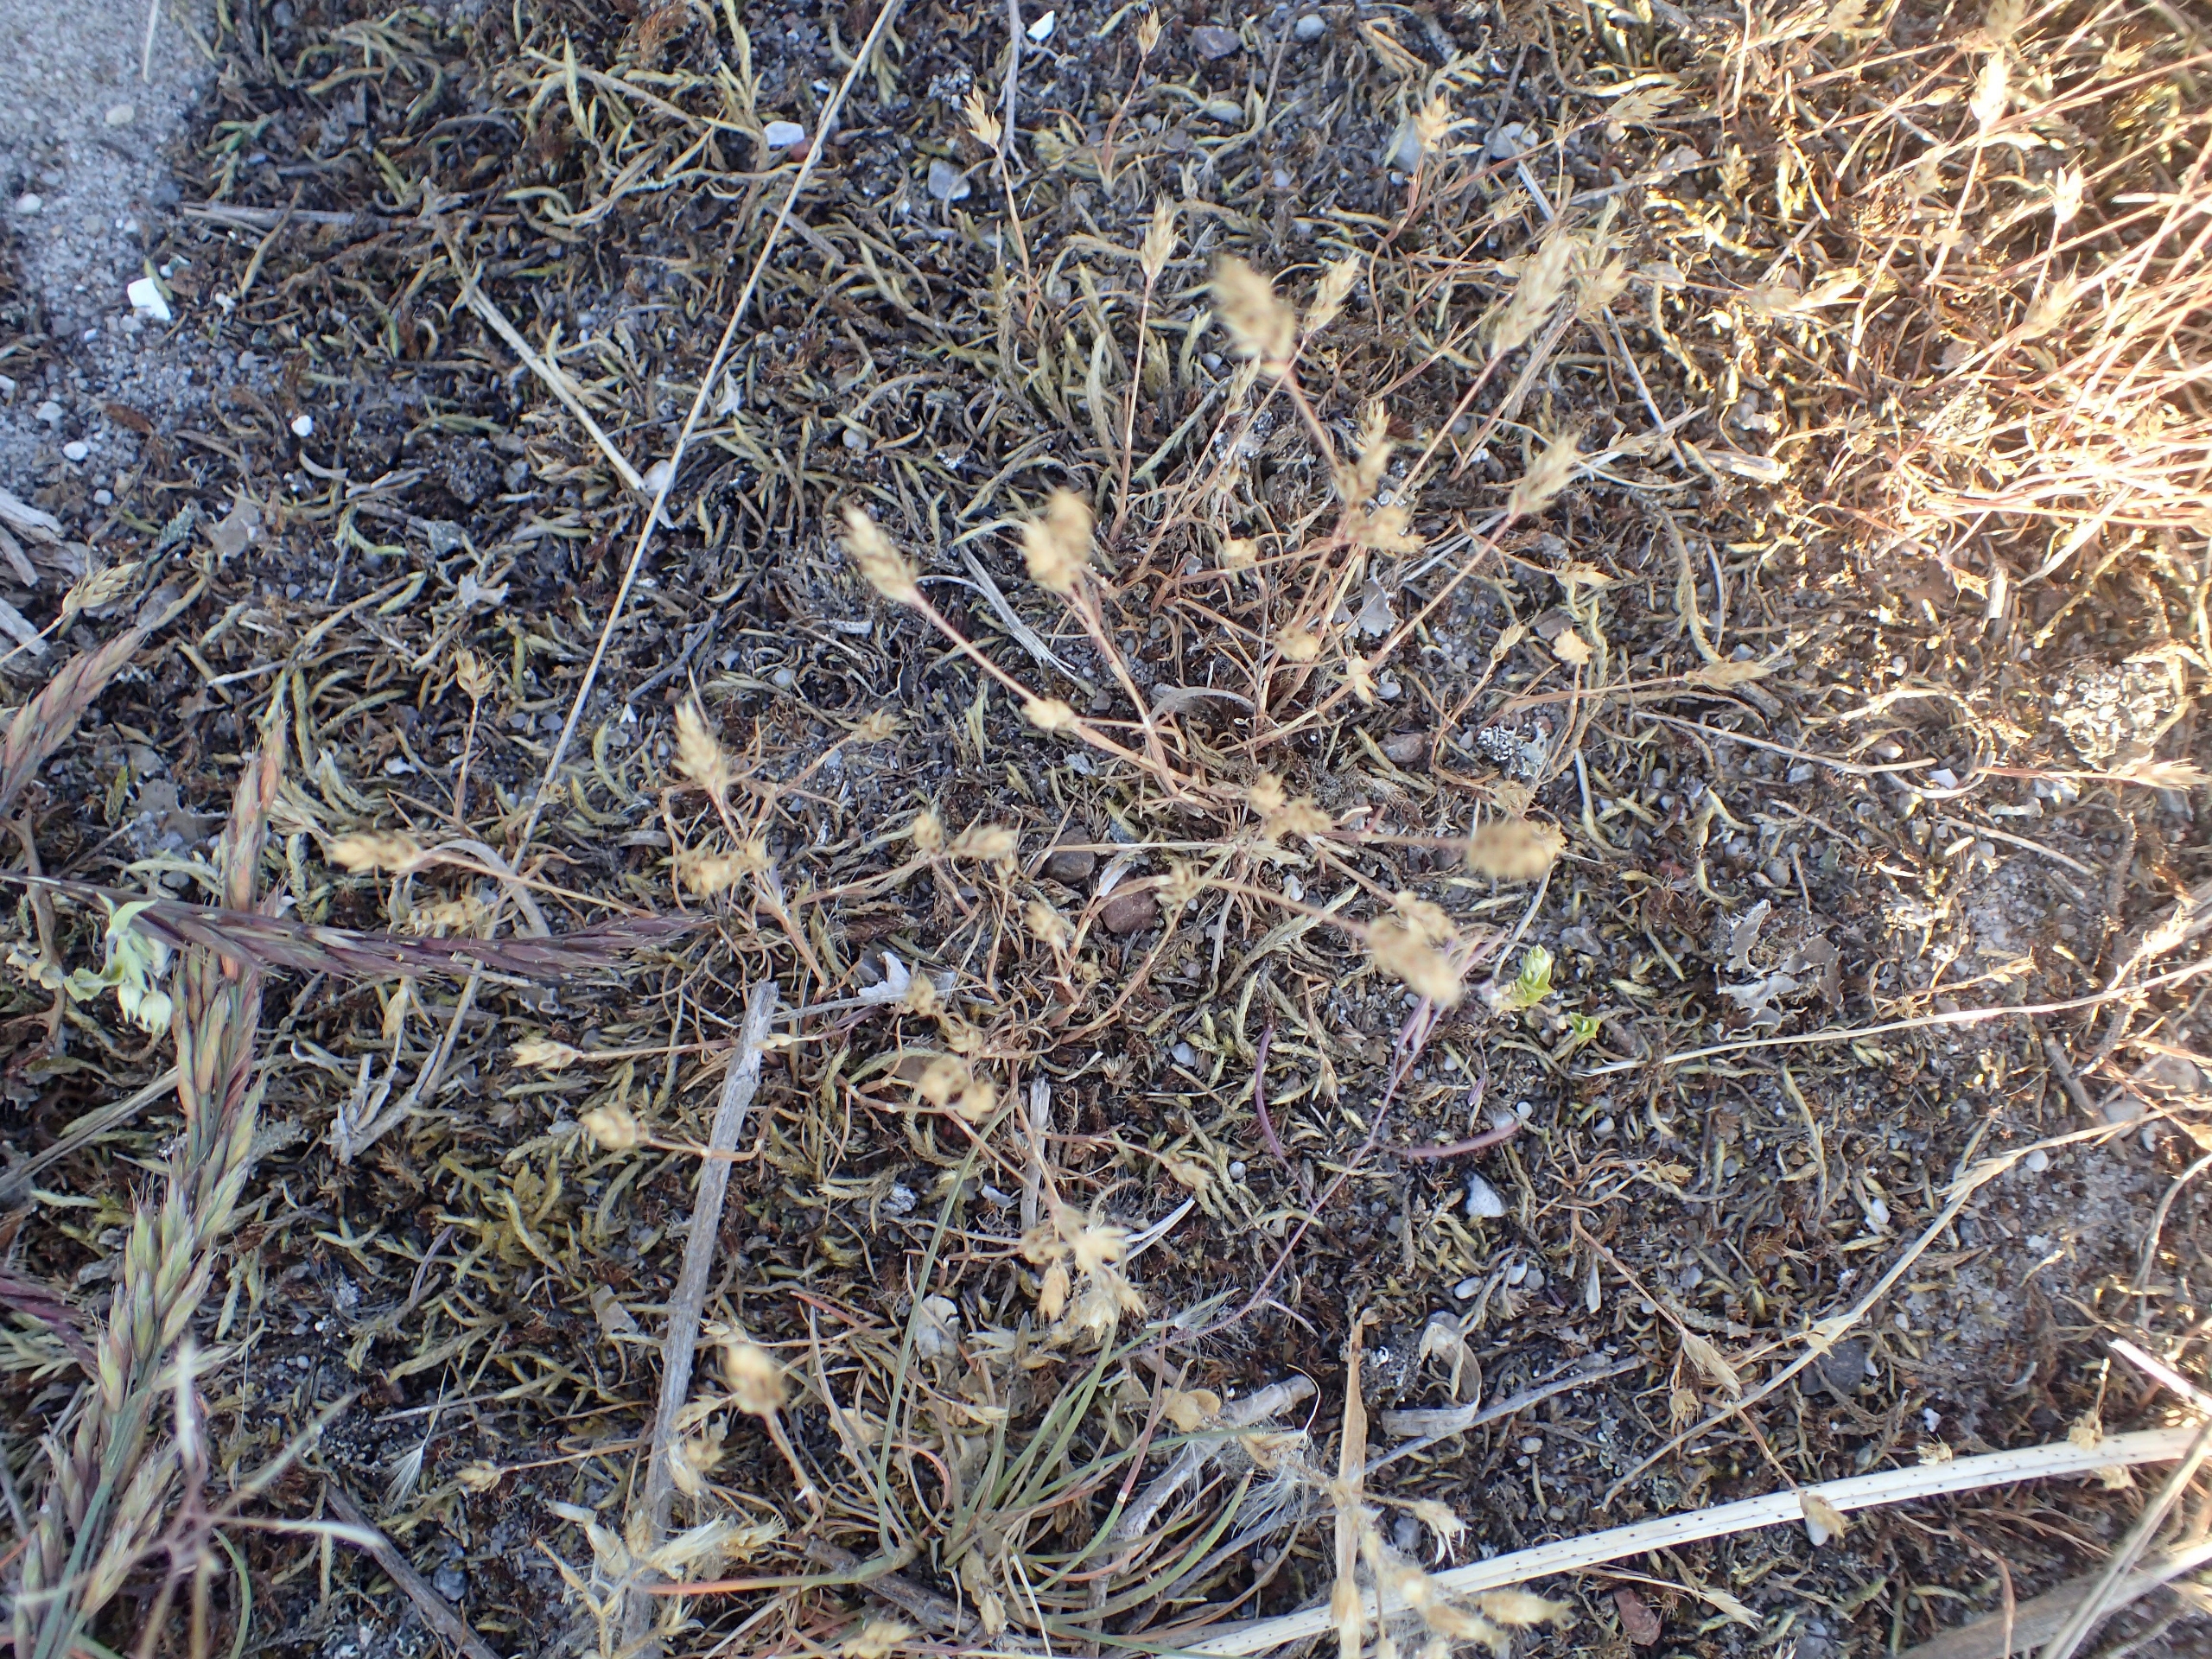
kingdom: Plantae
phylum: Tracheophyta
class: Liliopsida
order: Poales
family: Poaceae
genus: Aira
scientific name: Aira praecox
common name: Tidlig dværgbunke
